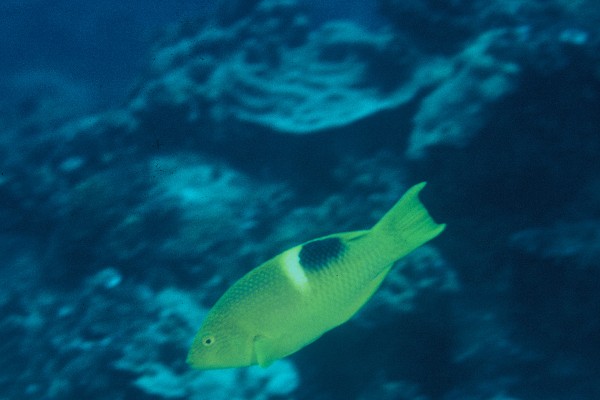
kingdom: Animalia
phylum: Chordata
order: Perciformes
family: Labridae
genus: Bodianus
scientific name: Bodianus perditio
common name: Goldspot pigfish
